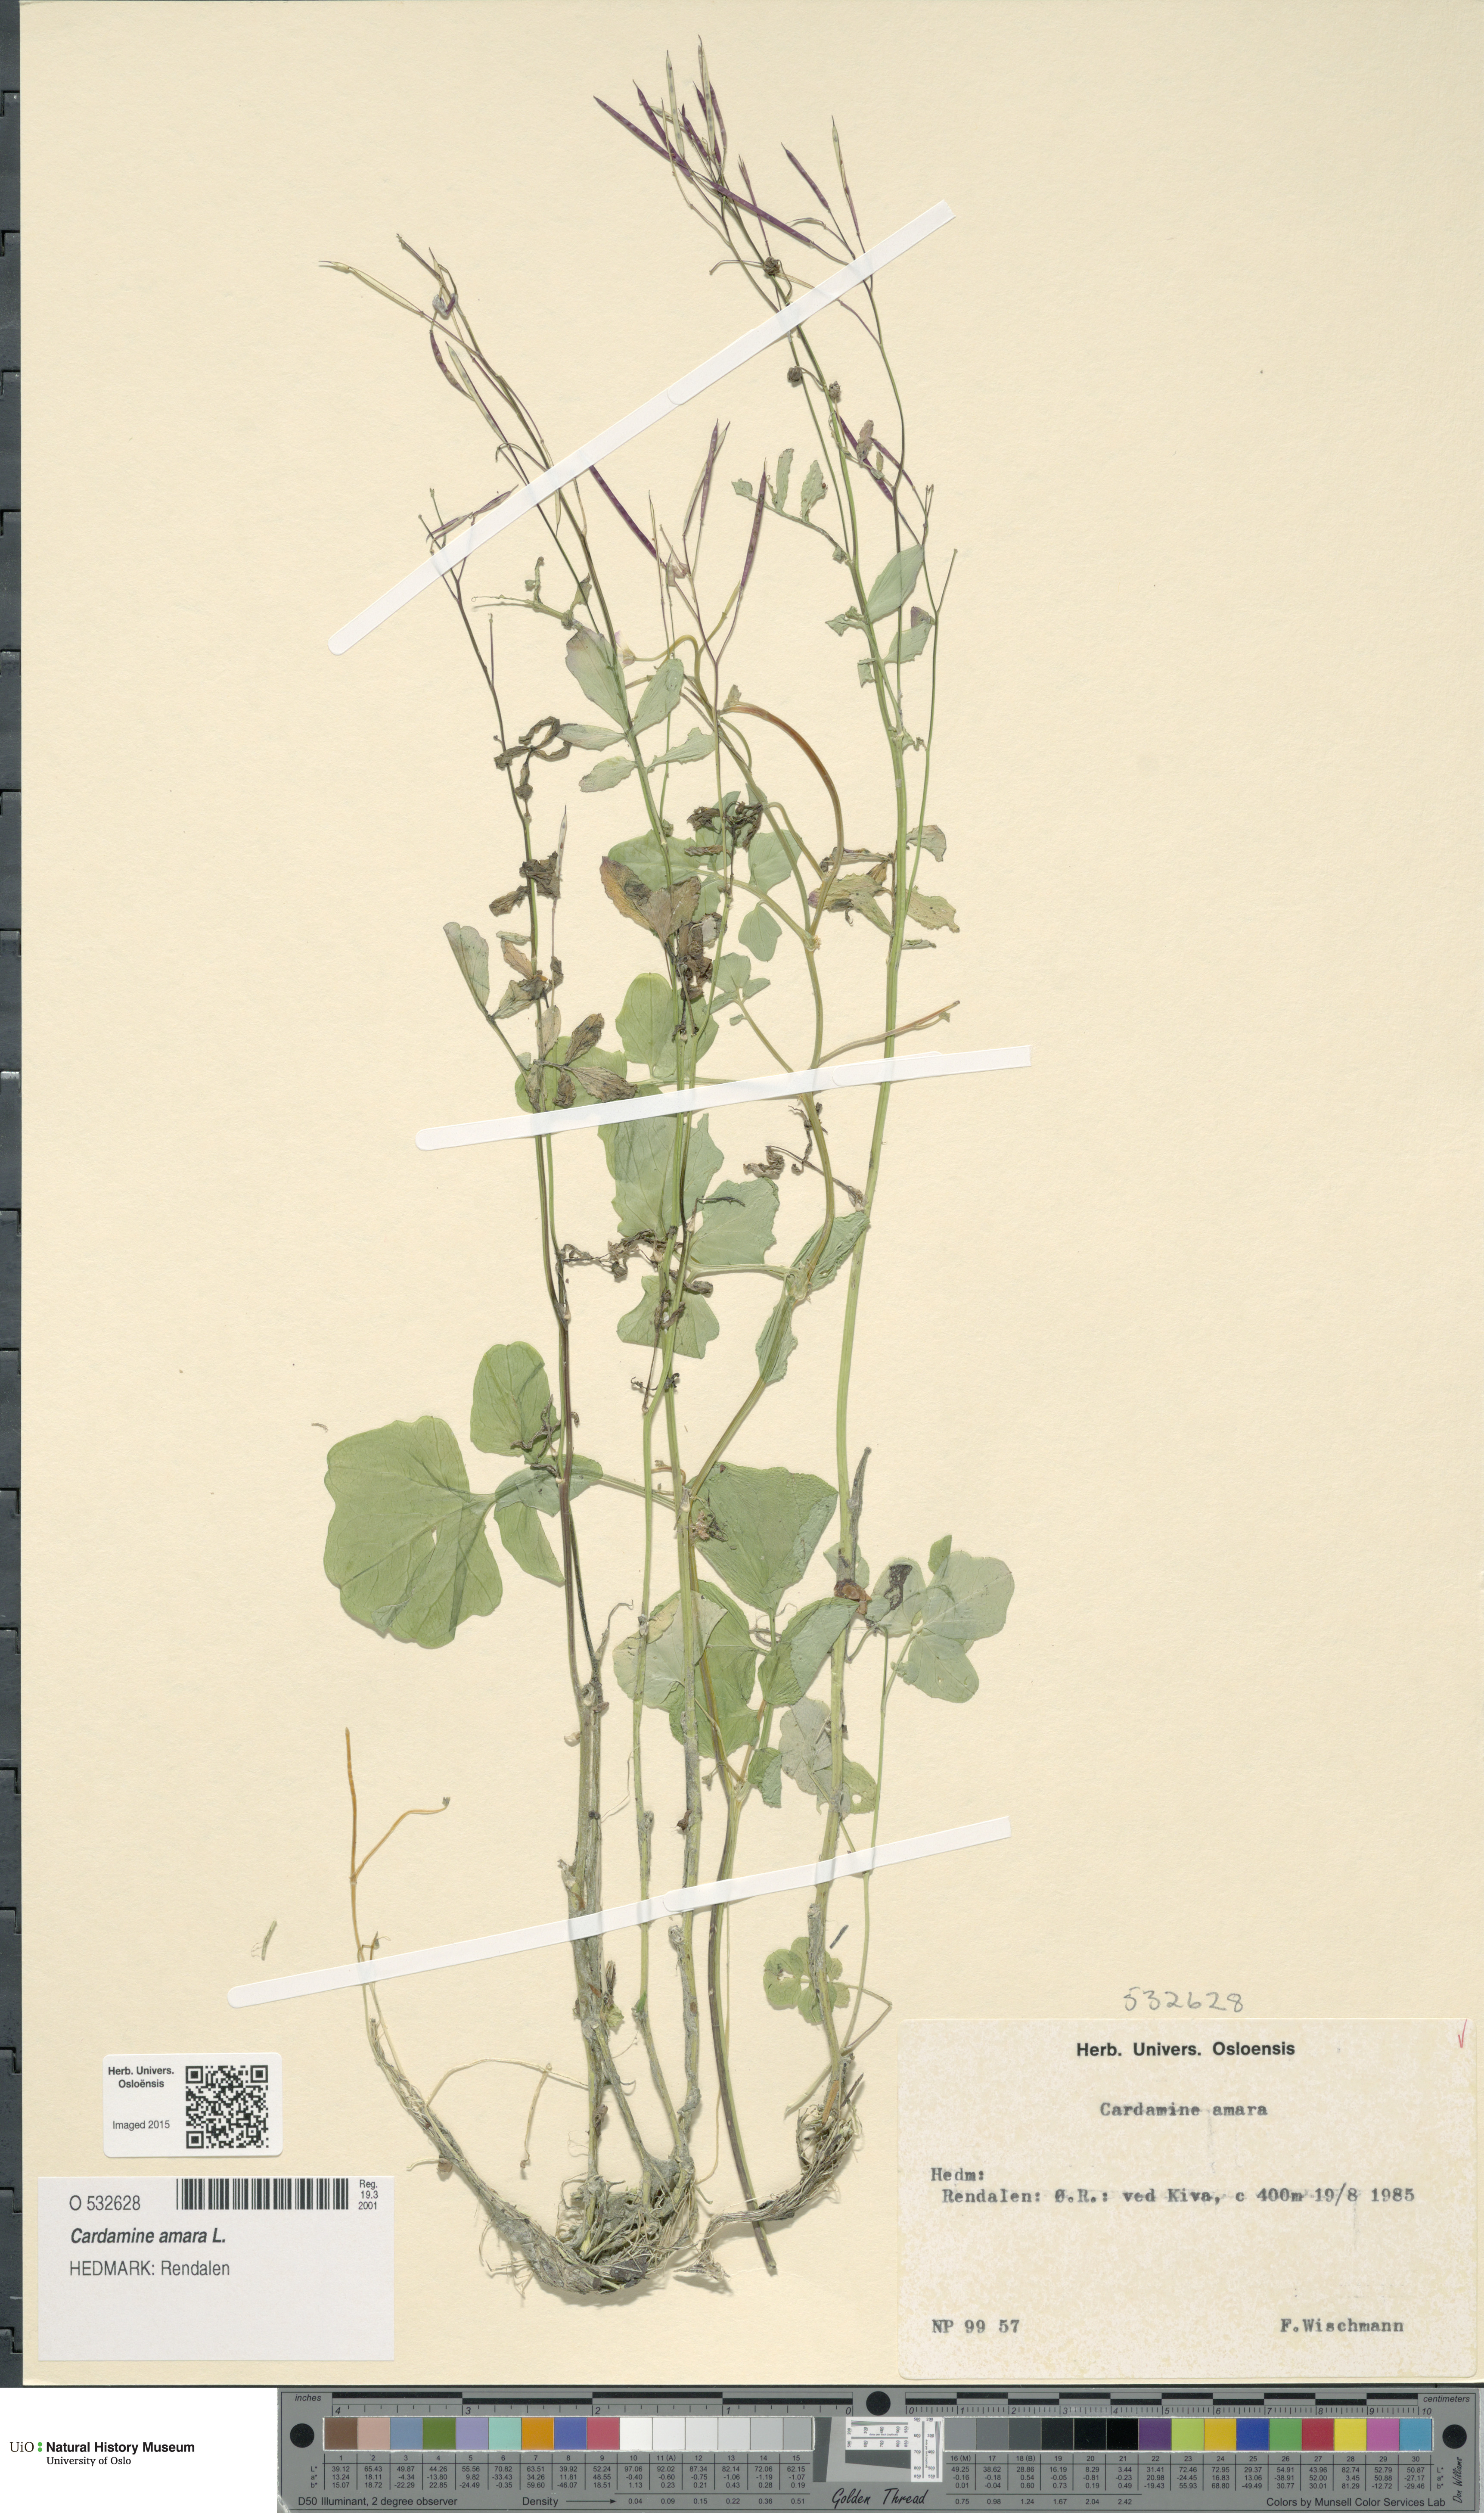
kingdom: Plantae
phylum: Tracheophyta
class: Magnoliopsida
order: Brassicales
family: Brassicaceae
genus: Cardamine
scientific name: Cardamine amara
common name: Large bitter-cress
